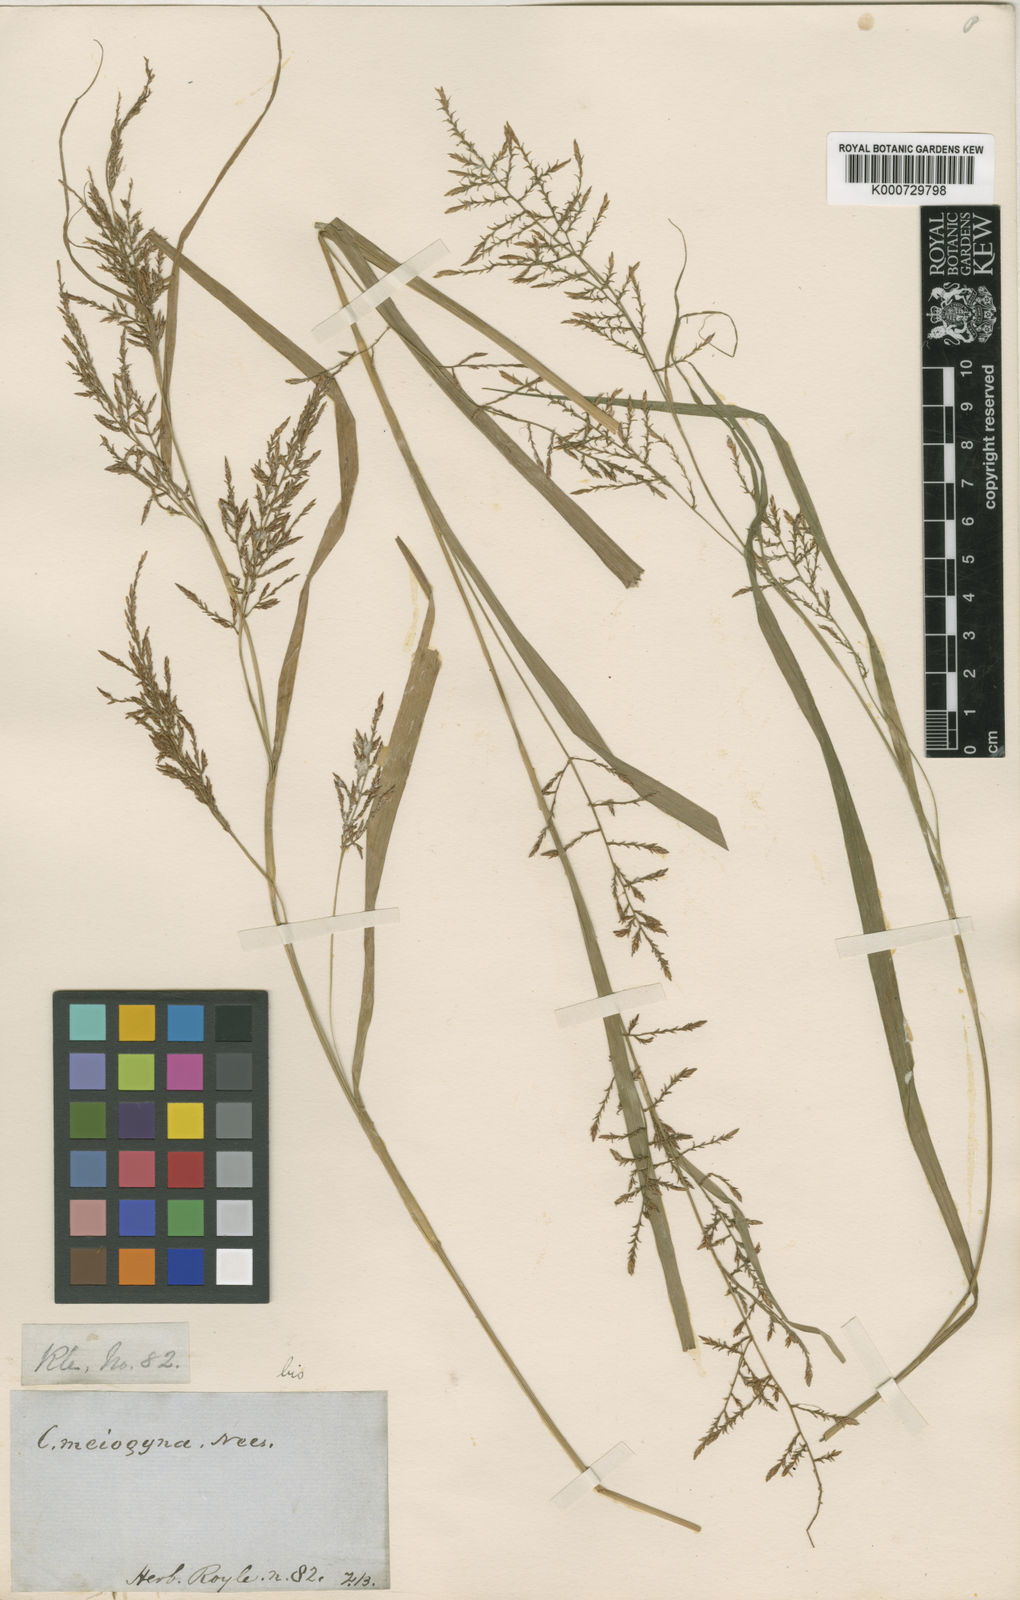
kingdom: Plantae
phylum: Tracheophyta
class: Liliopsida
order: Poales
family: Cyperaceae
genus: Carex
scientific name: Carex filicina
